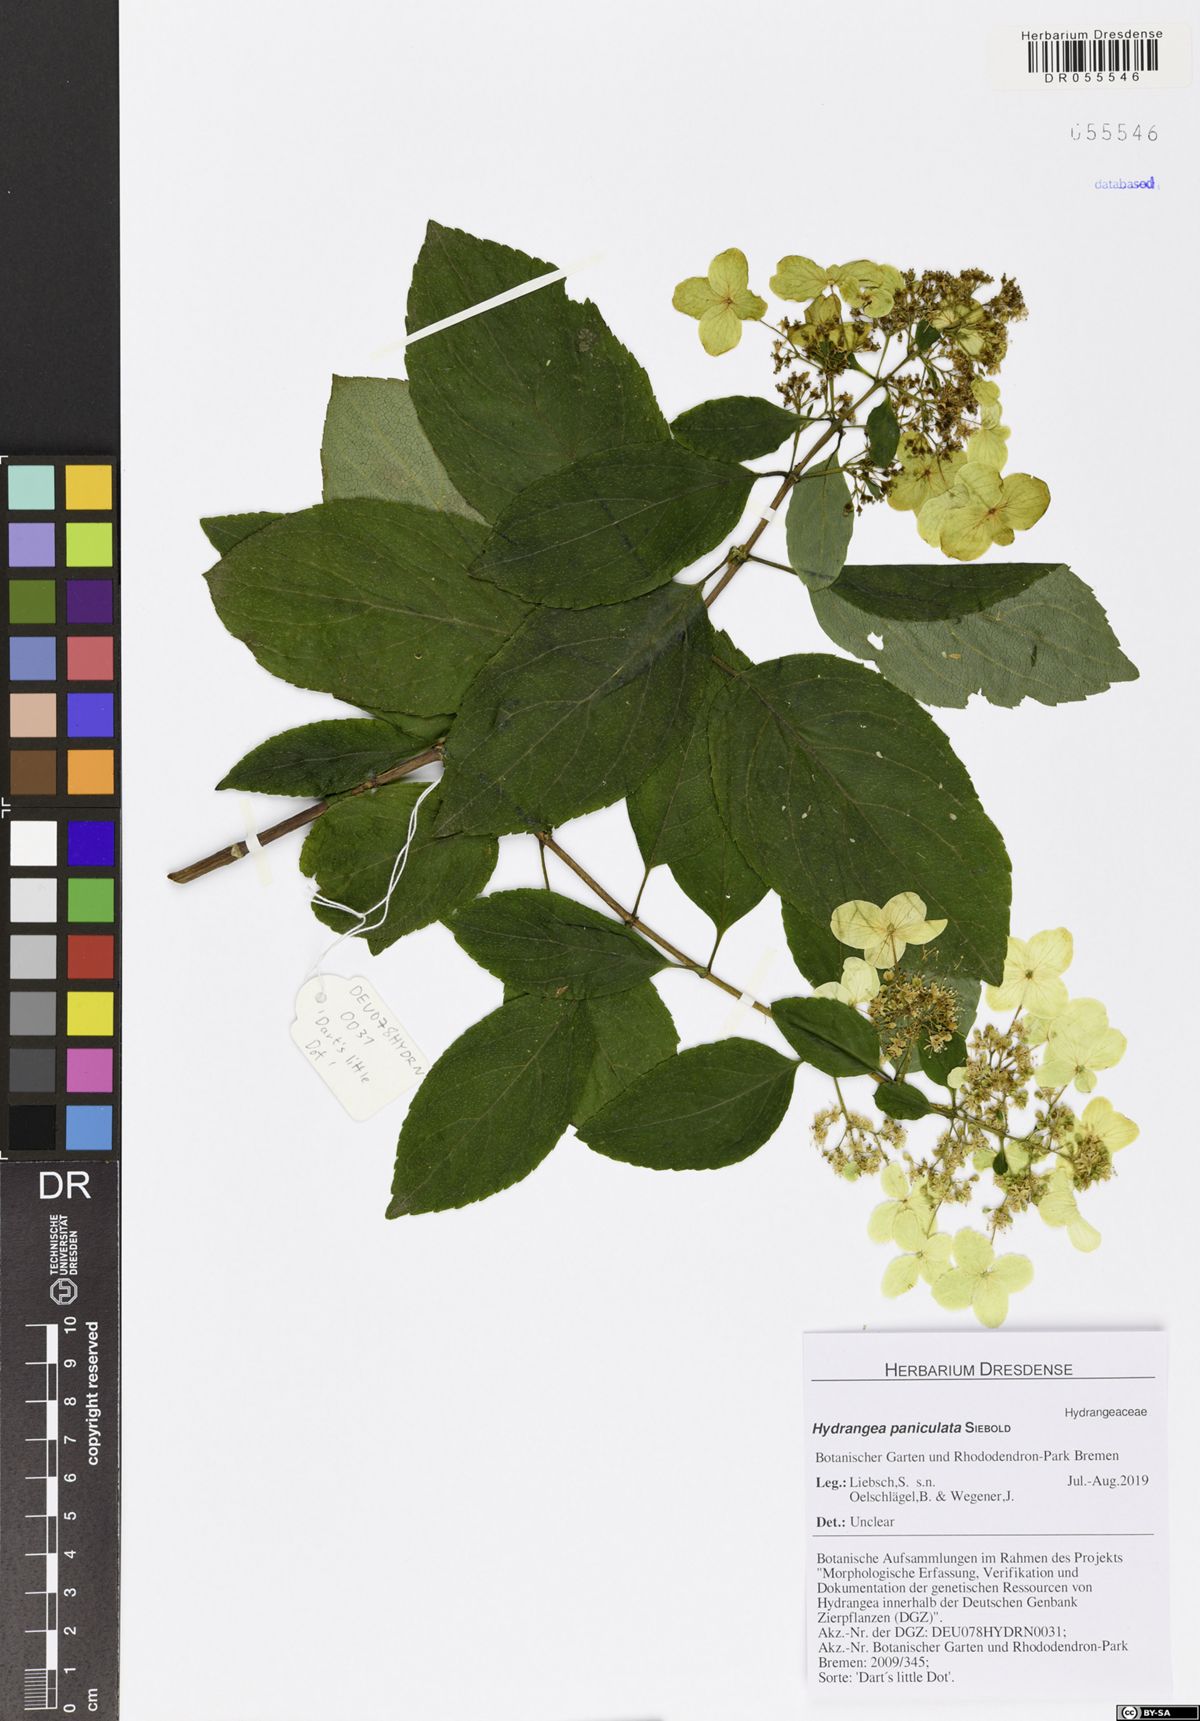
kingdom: Plantae
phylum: Tracheophyta
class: Magnoliopsida
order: Cornales
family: Hydrangeaceae
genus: Hydrangea
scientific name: Hydrangea paniculata
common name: Panicled hydrangea
